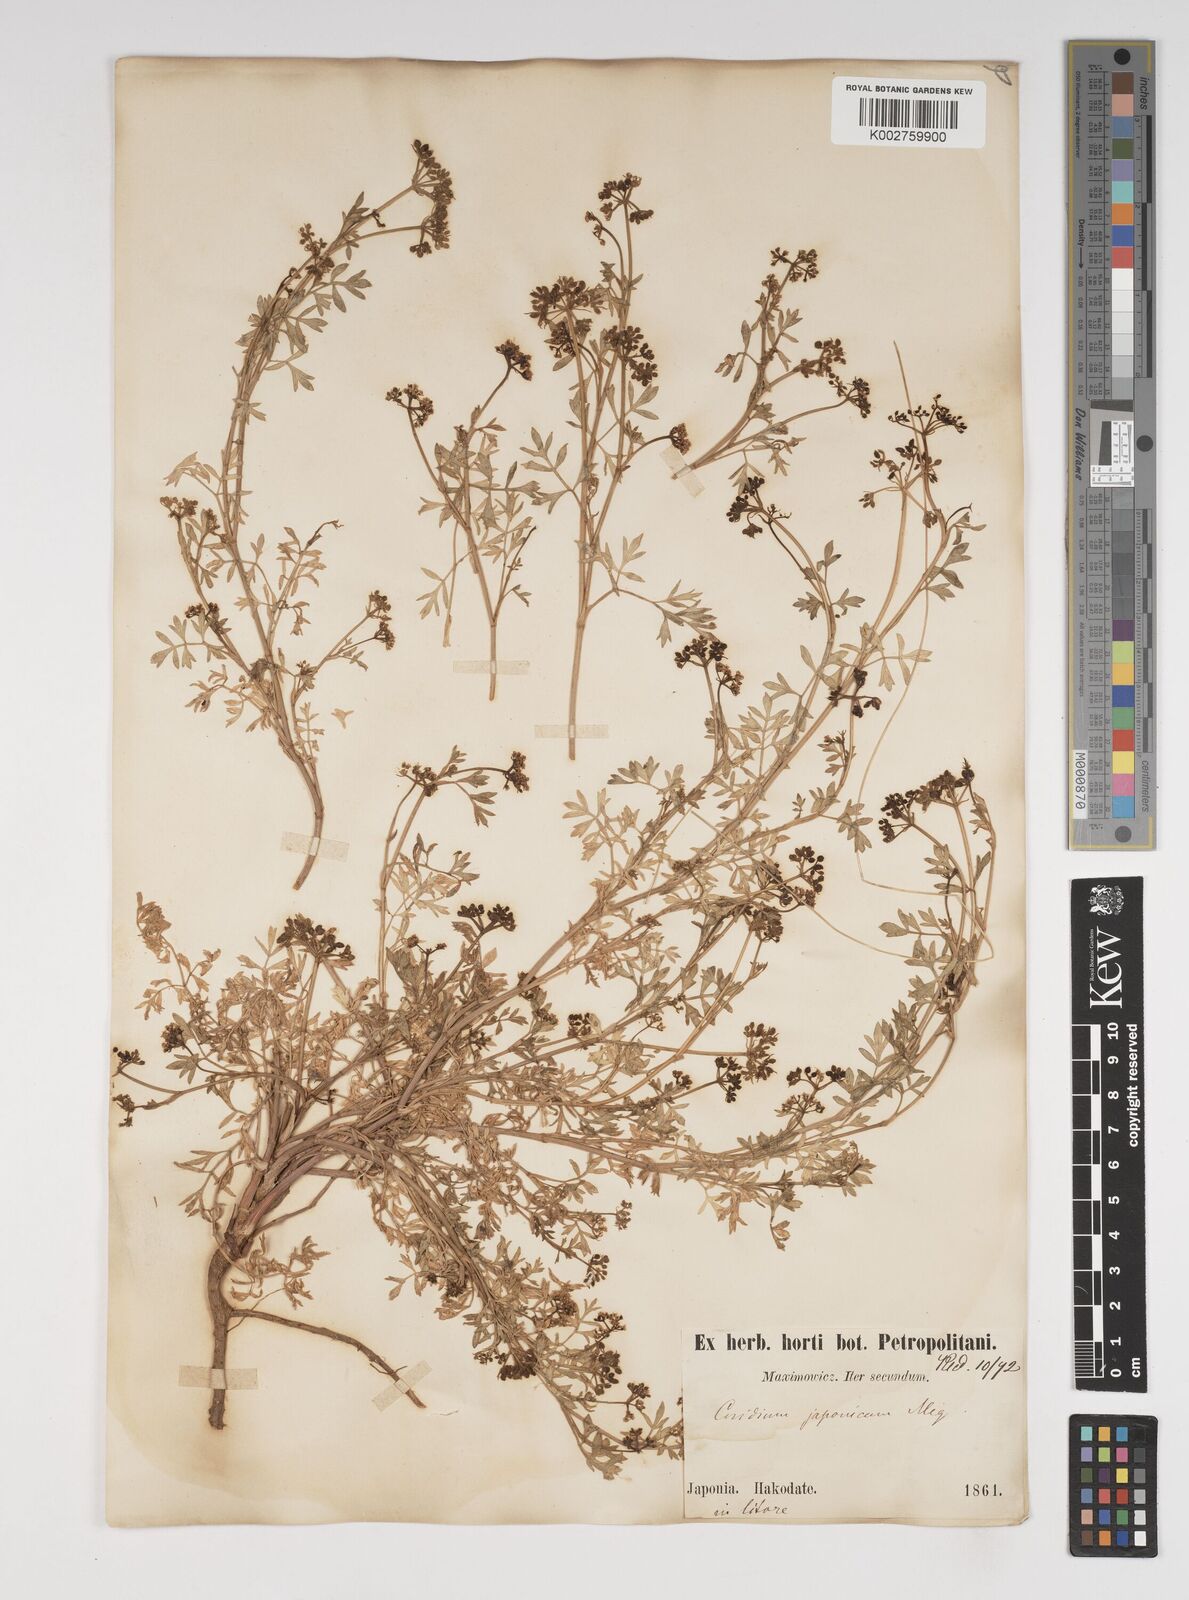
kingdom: Plantae
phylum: Tracheophyta
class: Magnoliopsida
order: Apiales
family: Apiaceae
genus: Cnidium
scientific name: Cnidium japonicum
